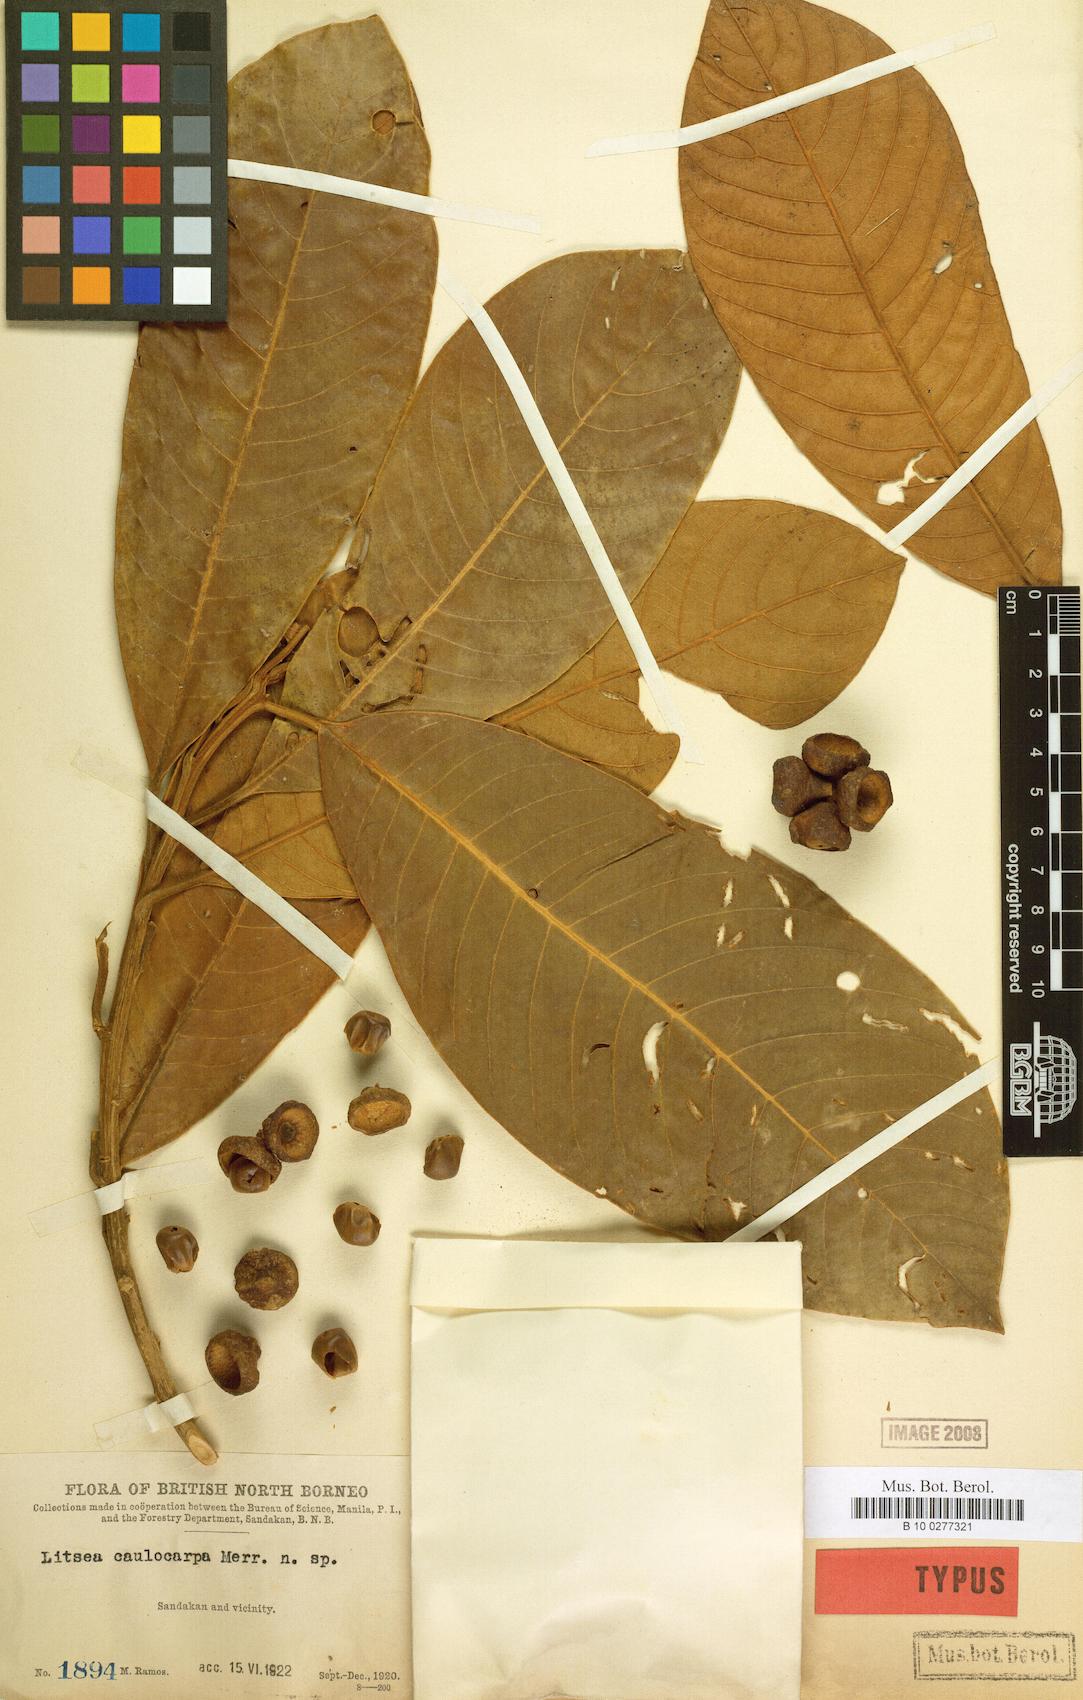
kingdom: Plantae
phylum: Tracheophyta
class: Magnoliopsida
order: Laurales
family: Lauraceae
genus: Litsea
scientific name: Litsea caulocarpa
